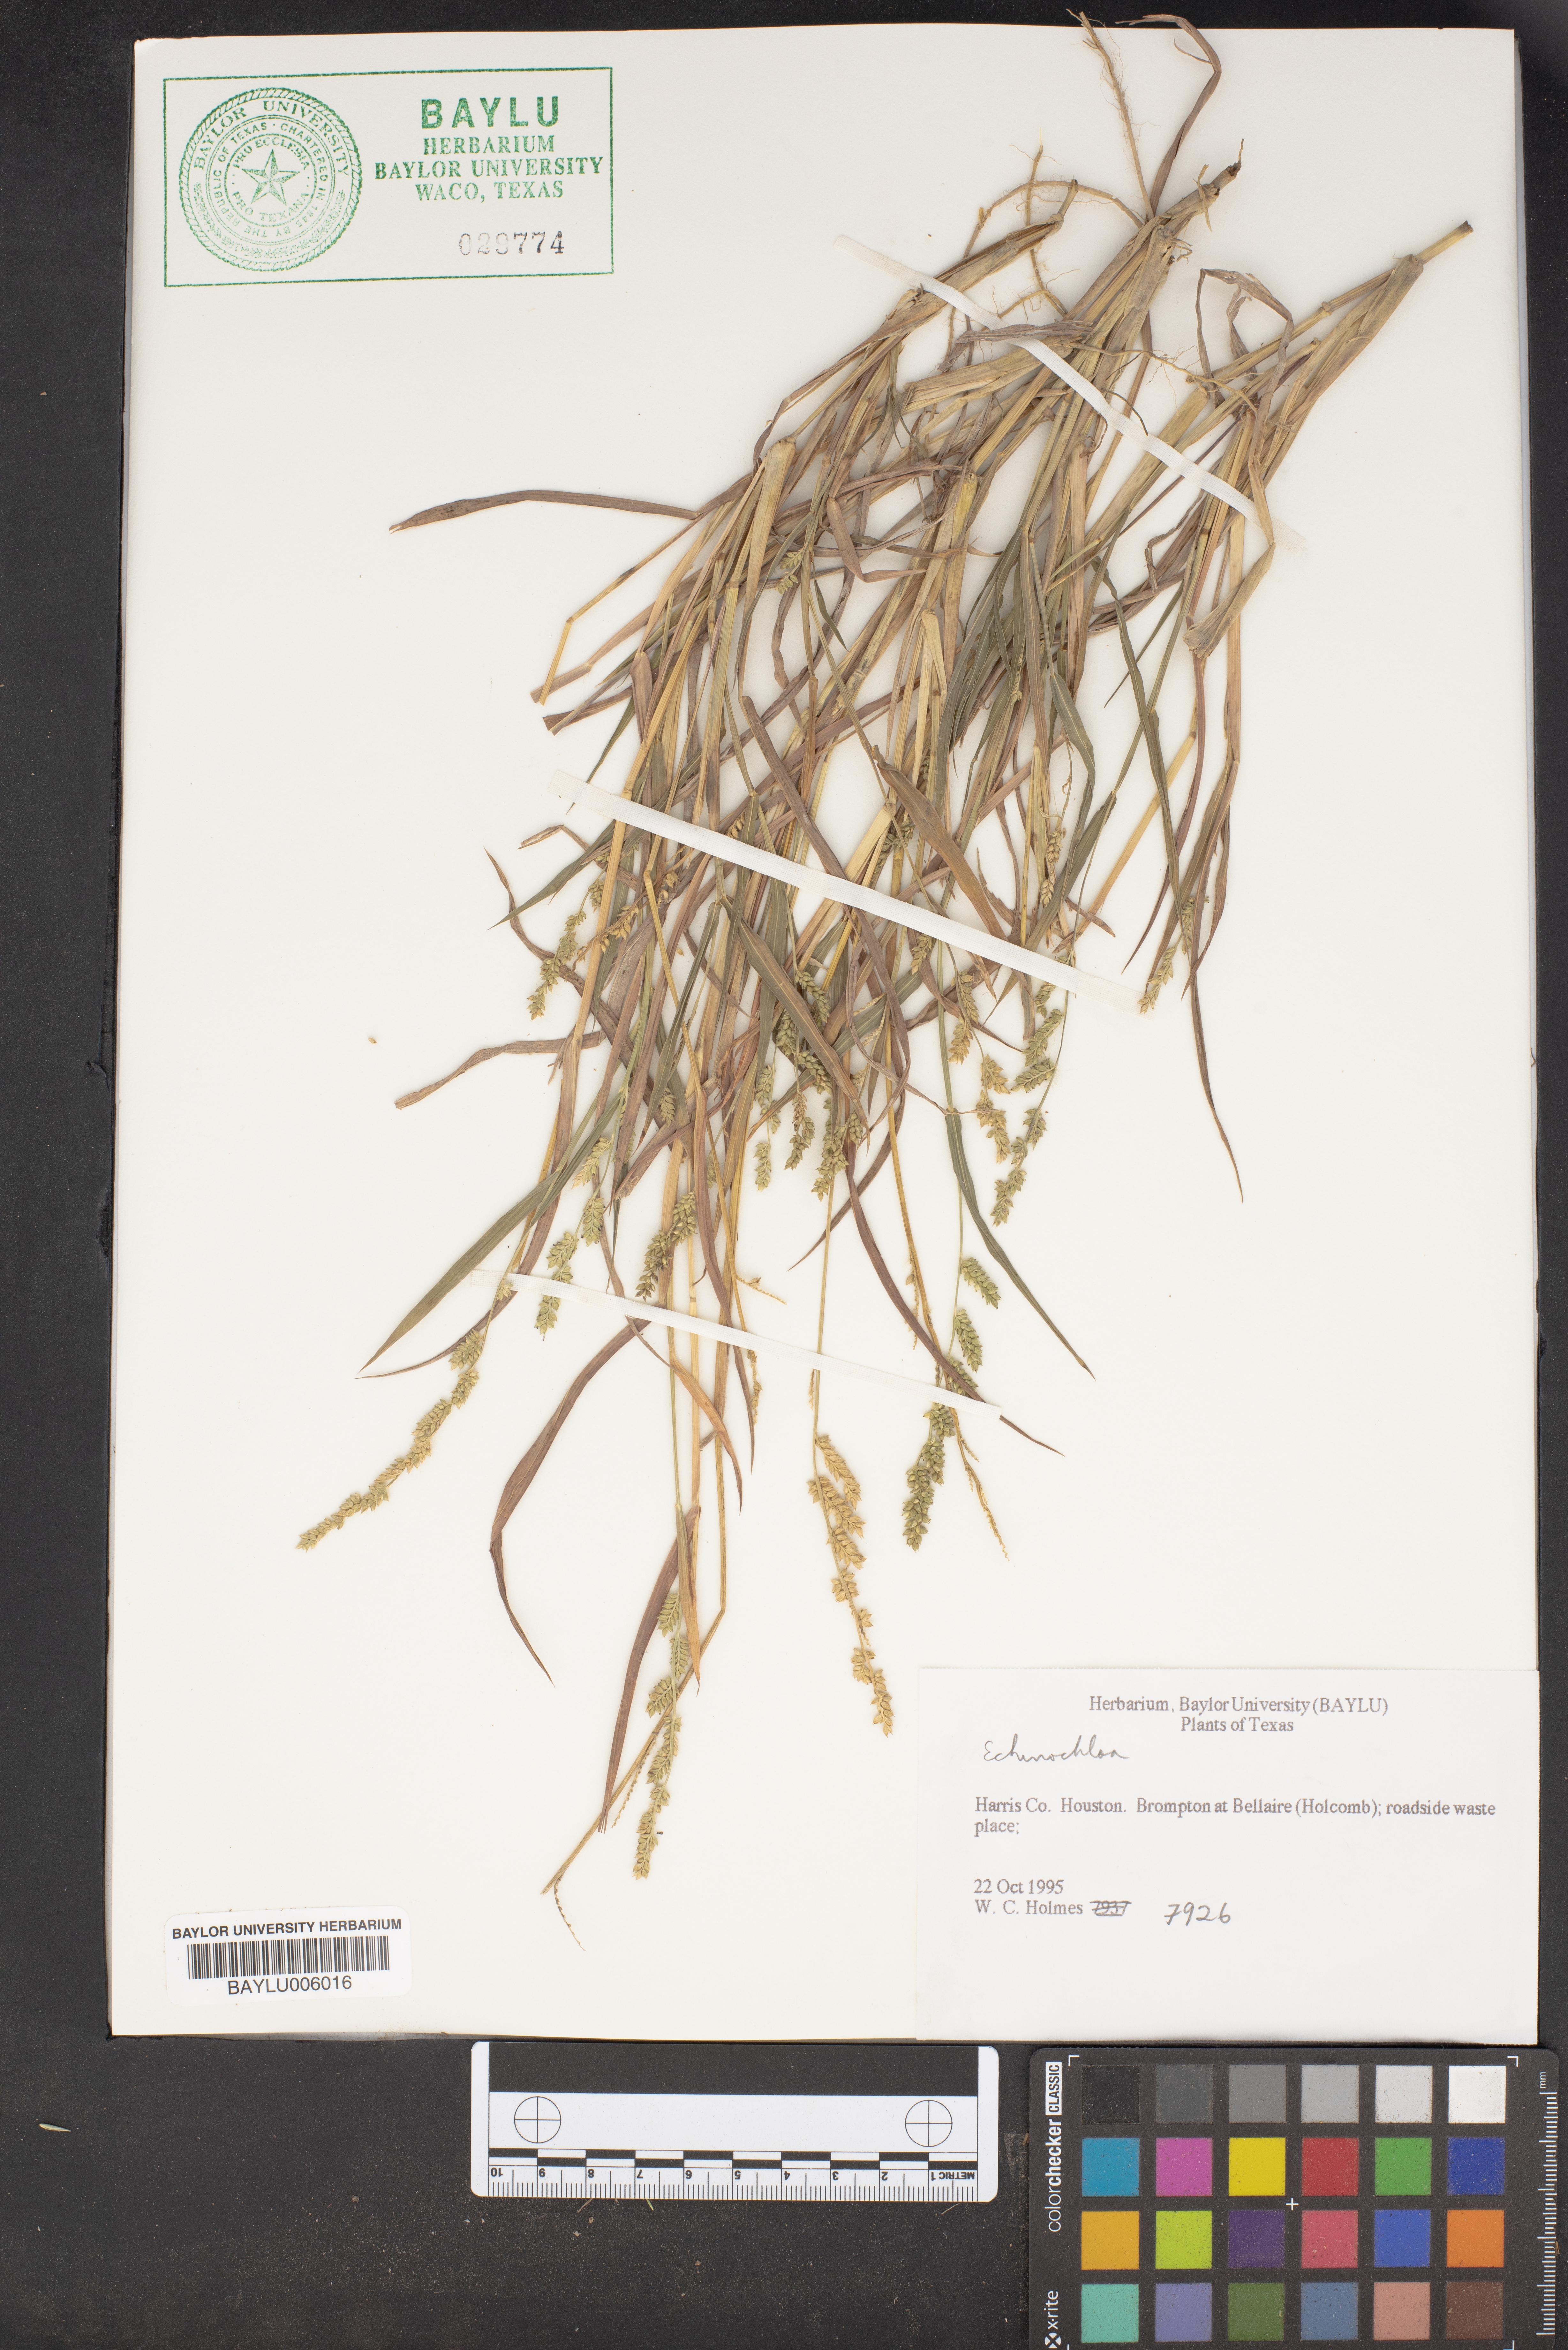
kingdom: Plantae
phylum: Tracheophyta
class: Liliopsida
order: Poales
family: Poaceae
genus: Echinochloa
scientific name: Echinochloa
